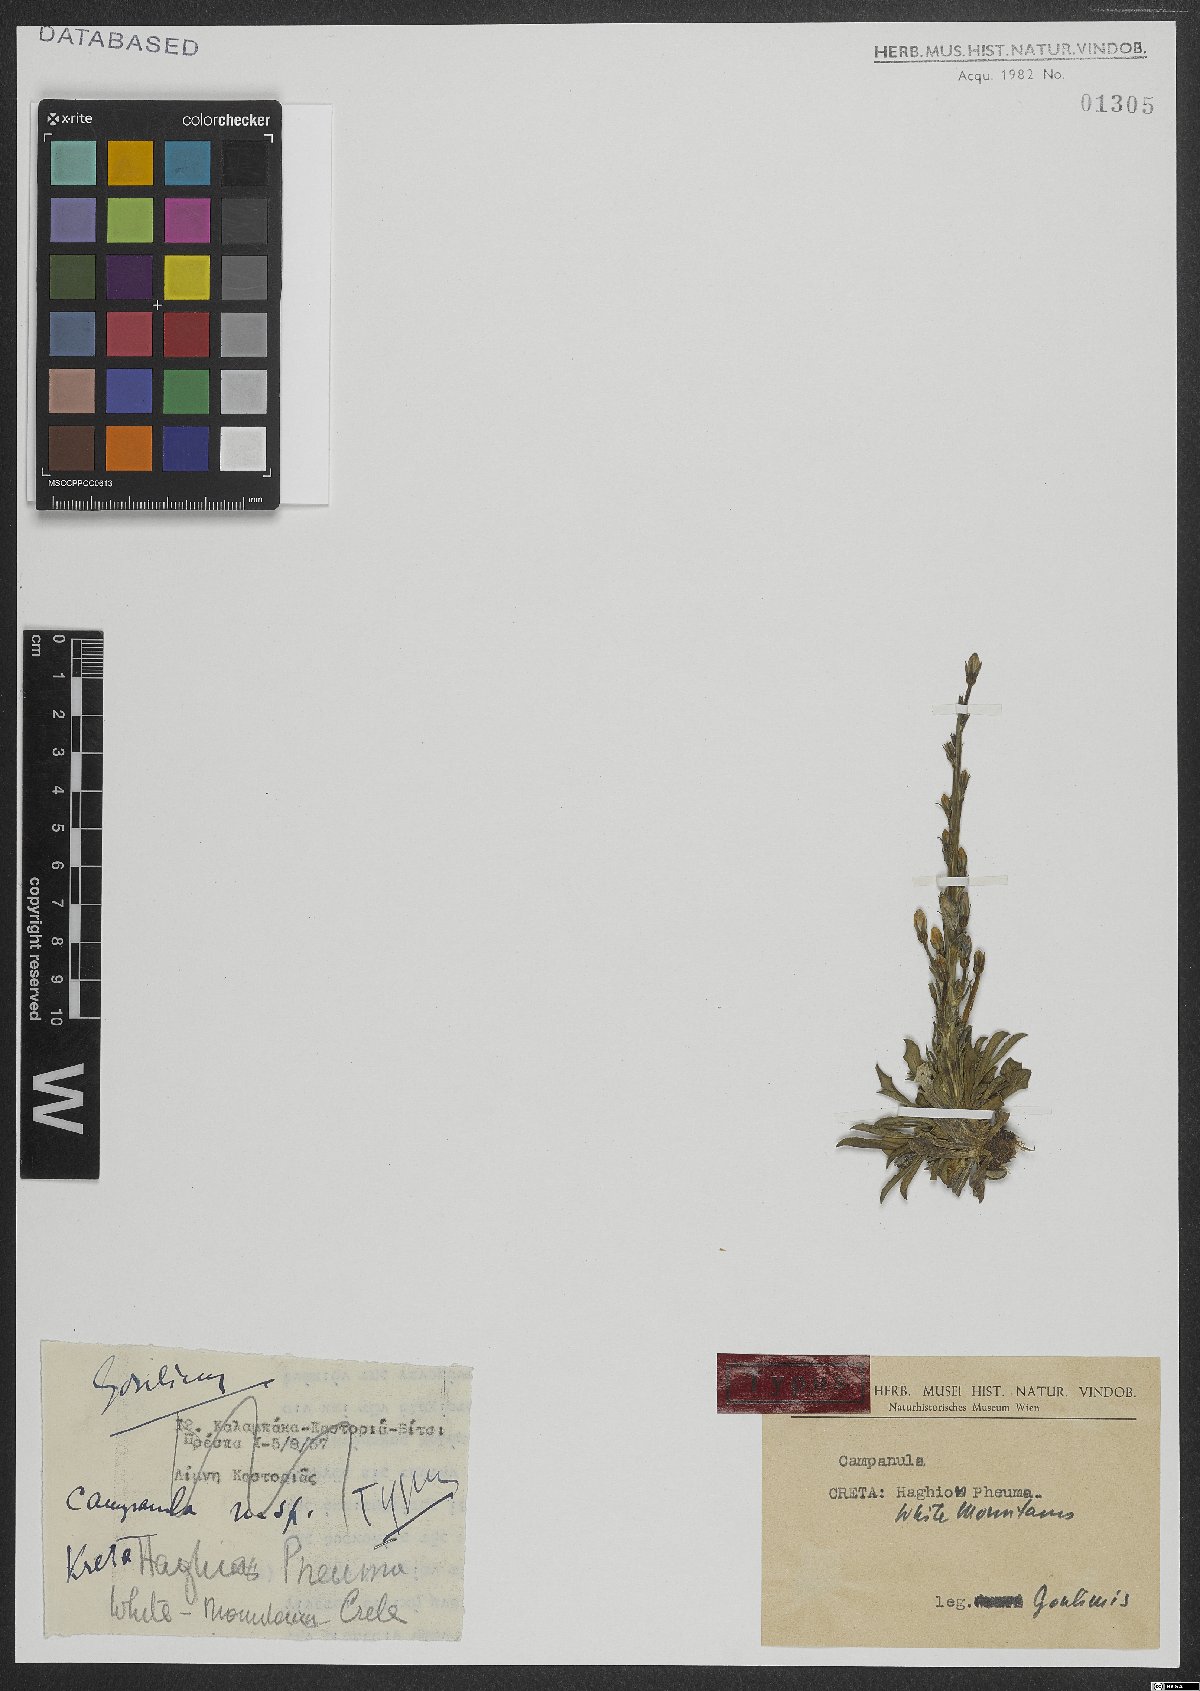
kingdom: Plantae
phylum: Tracheophyta
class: Magnoliopsida
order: Asterales
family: Campanulaceae
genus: Campanula
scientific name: Campanula
